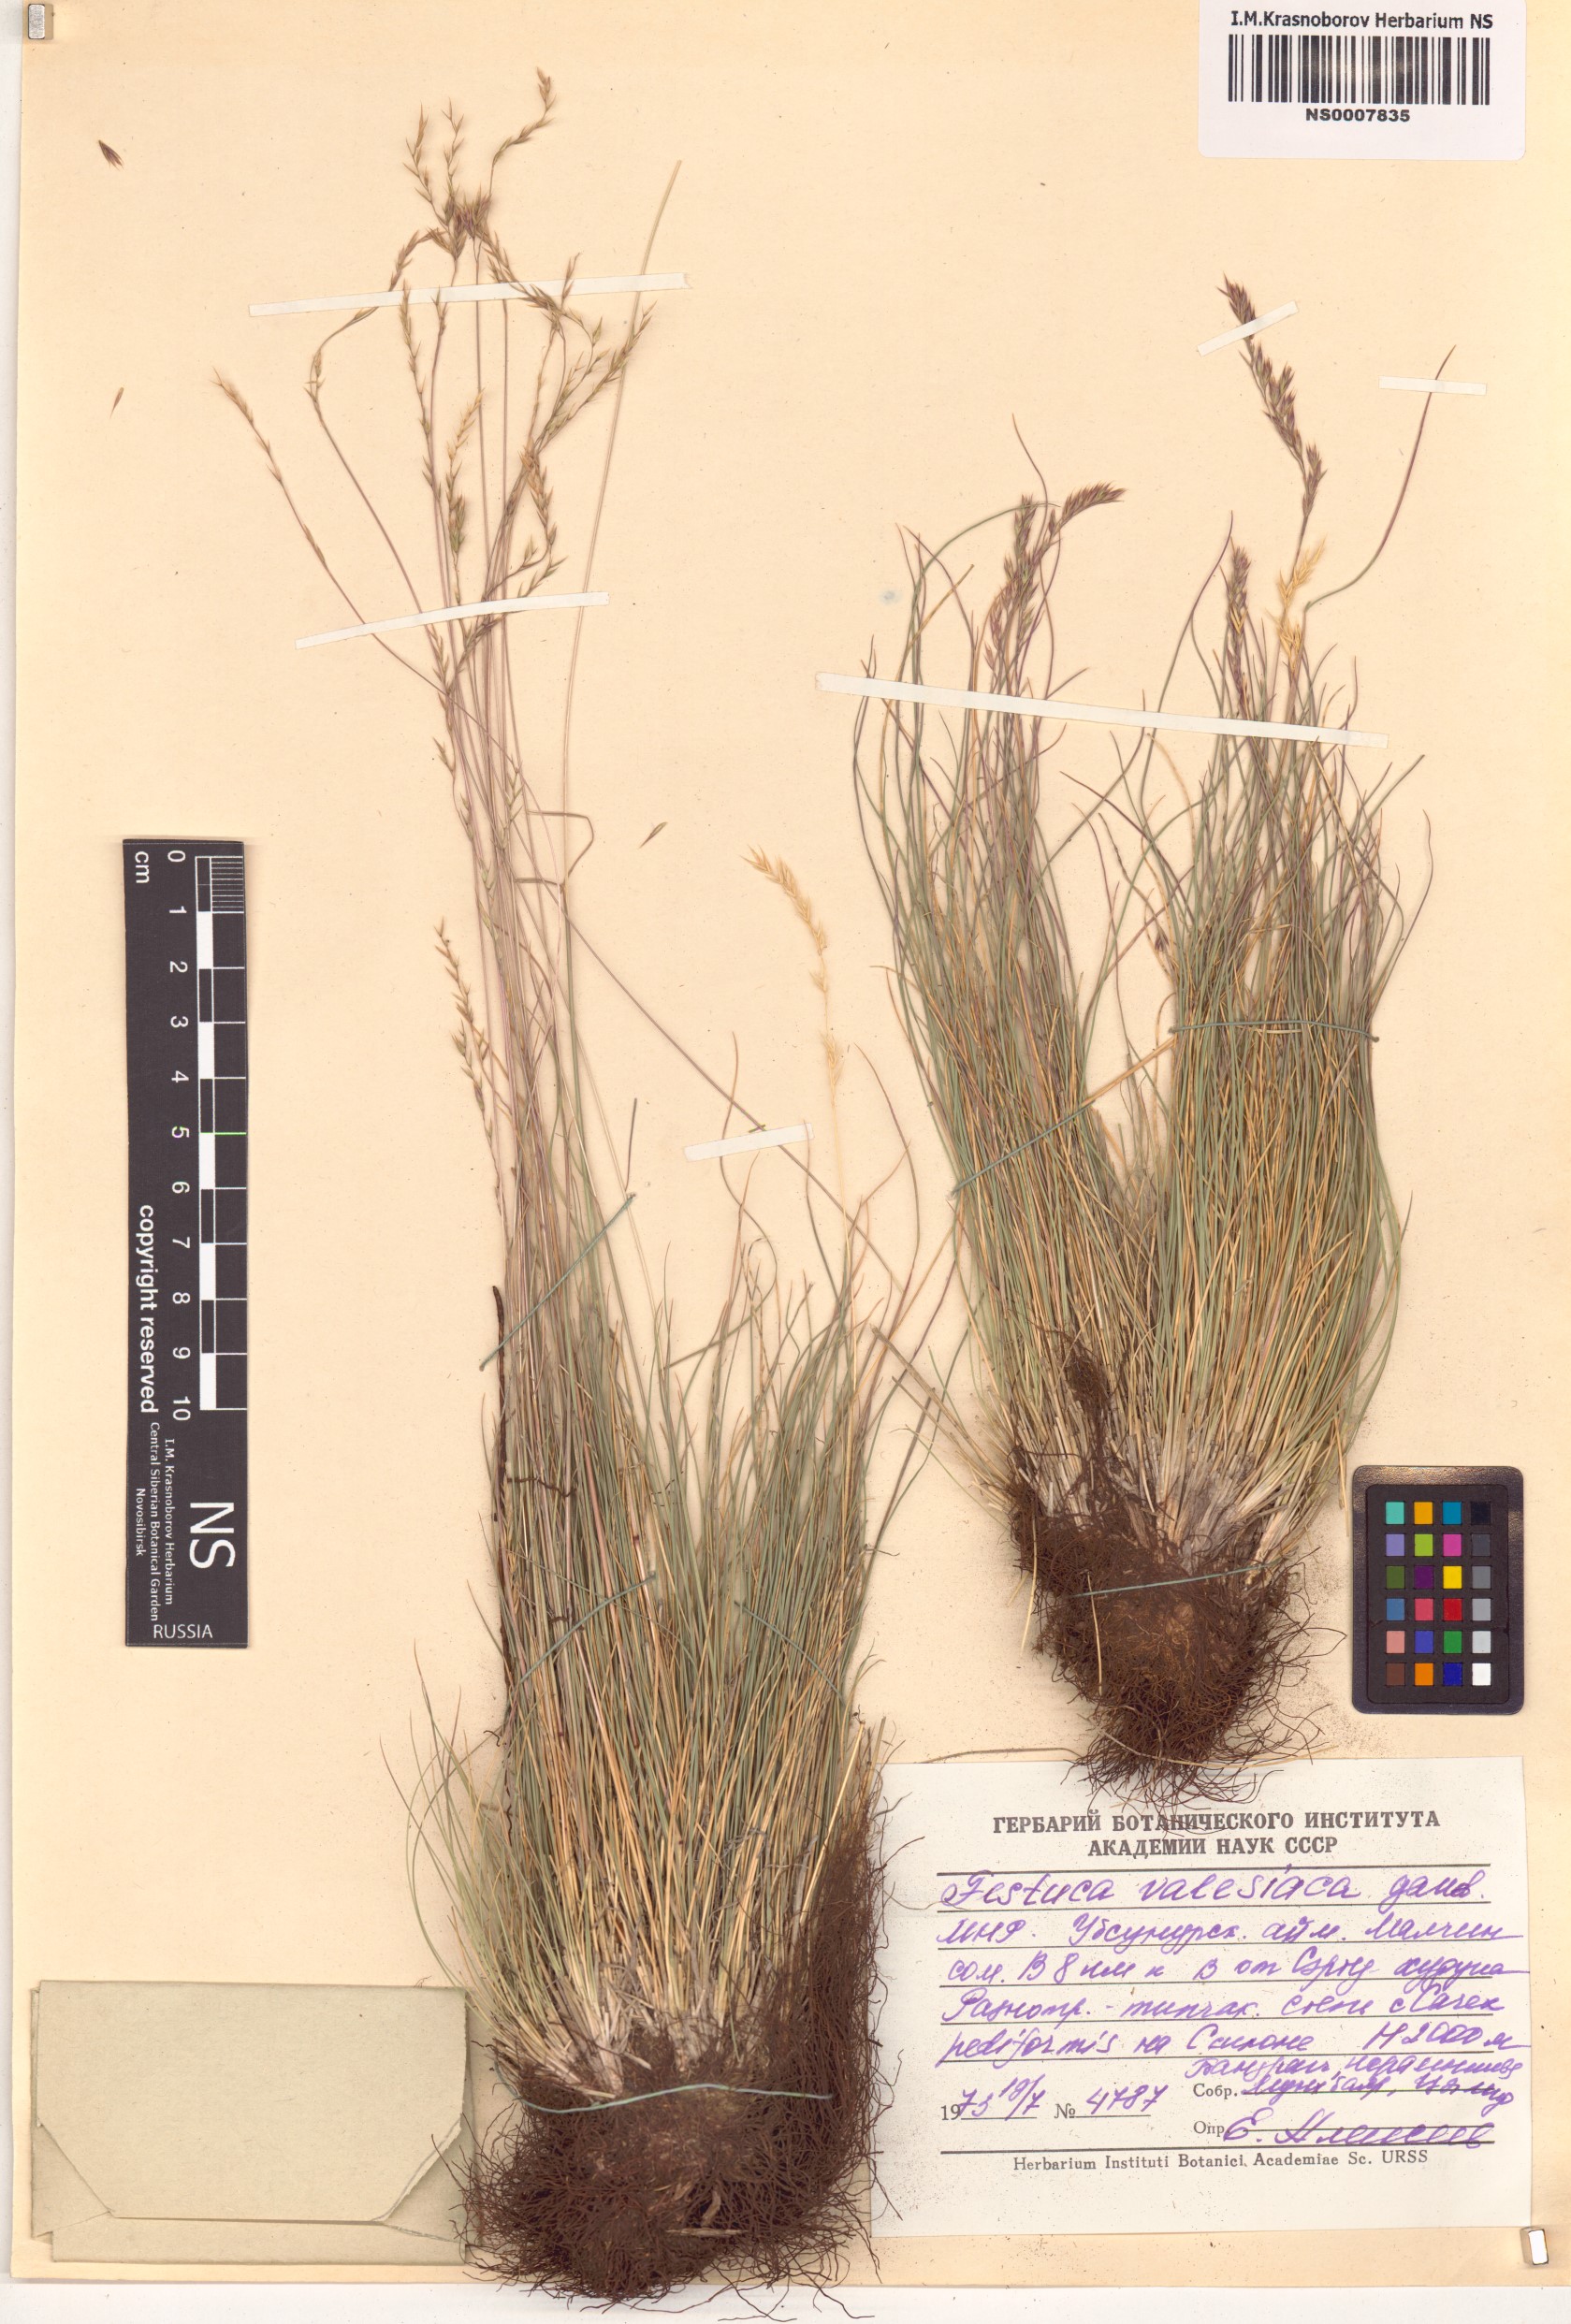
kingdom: Plantae
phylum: Tracheophyta
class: Liliopsida
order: Poales
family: Poaceae
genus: Festuca
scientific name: Festuca valesiaca
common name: Volga fescue
